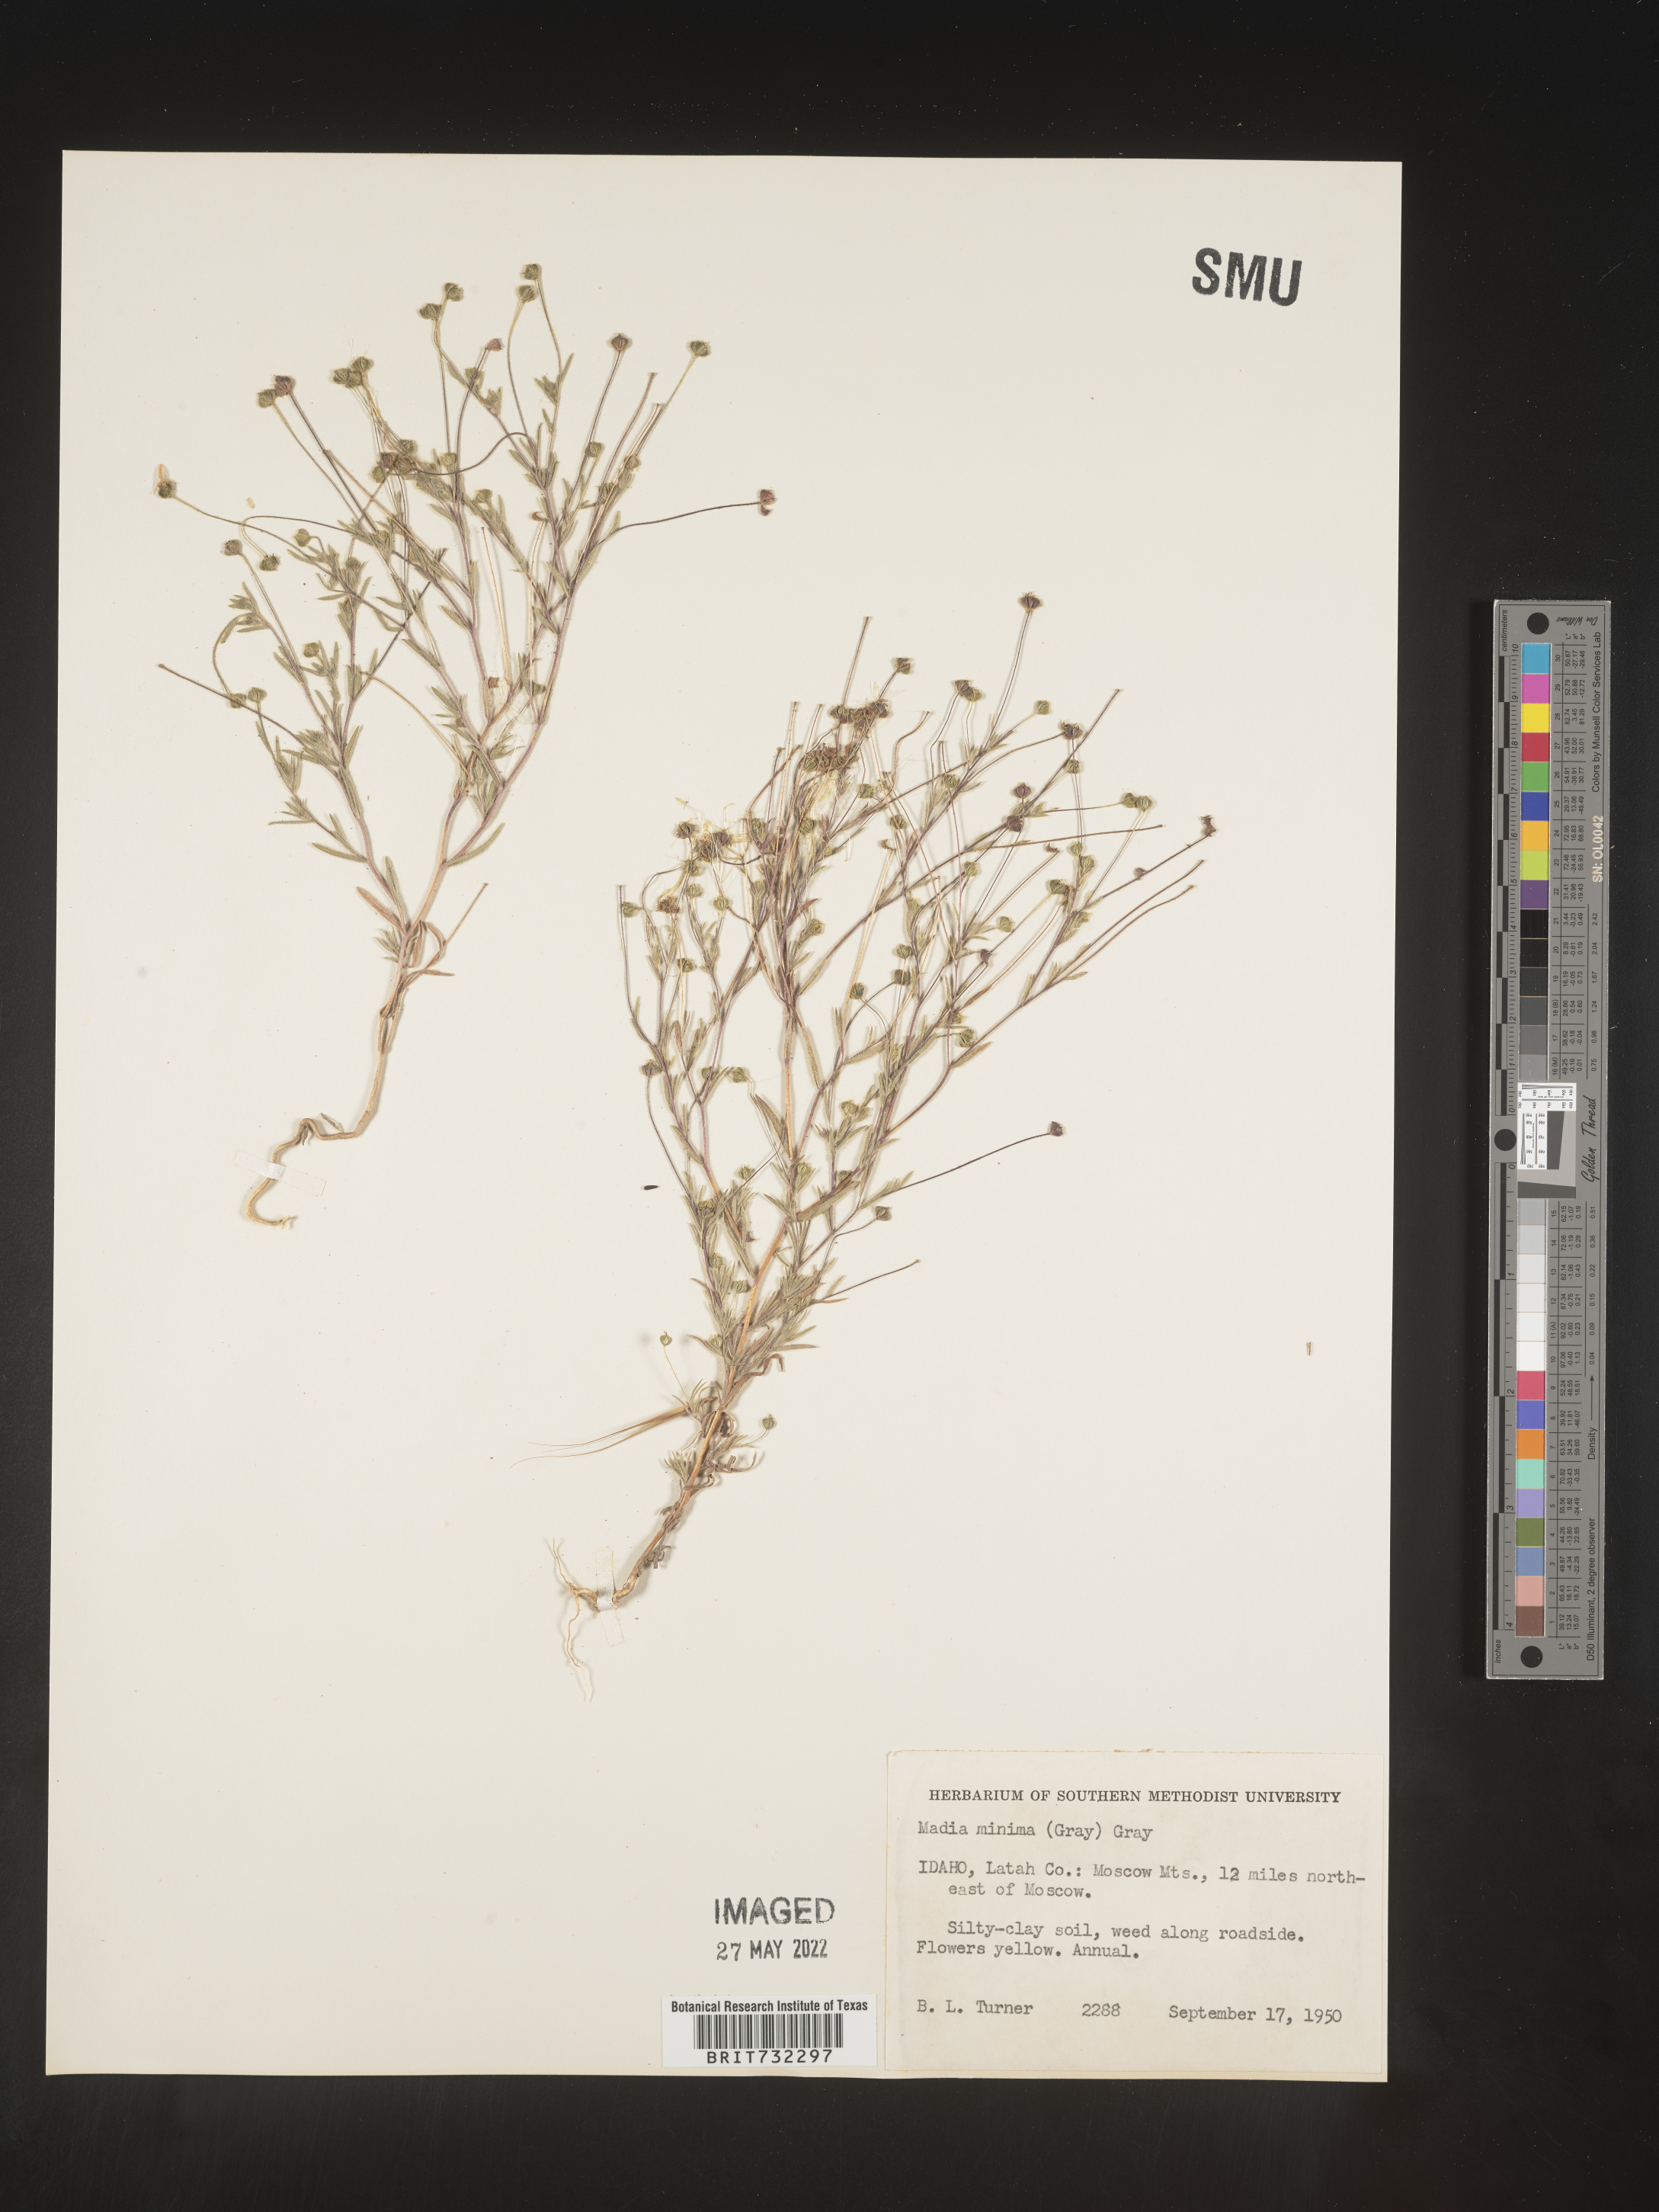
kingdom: Plantae
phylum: Tracheophyta
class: Magnoliopsida
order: Asterales
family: Asteraceae
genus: Madia
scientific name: Madia
